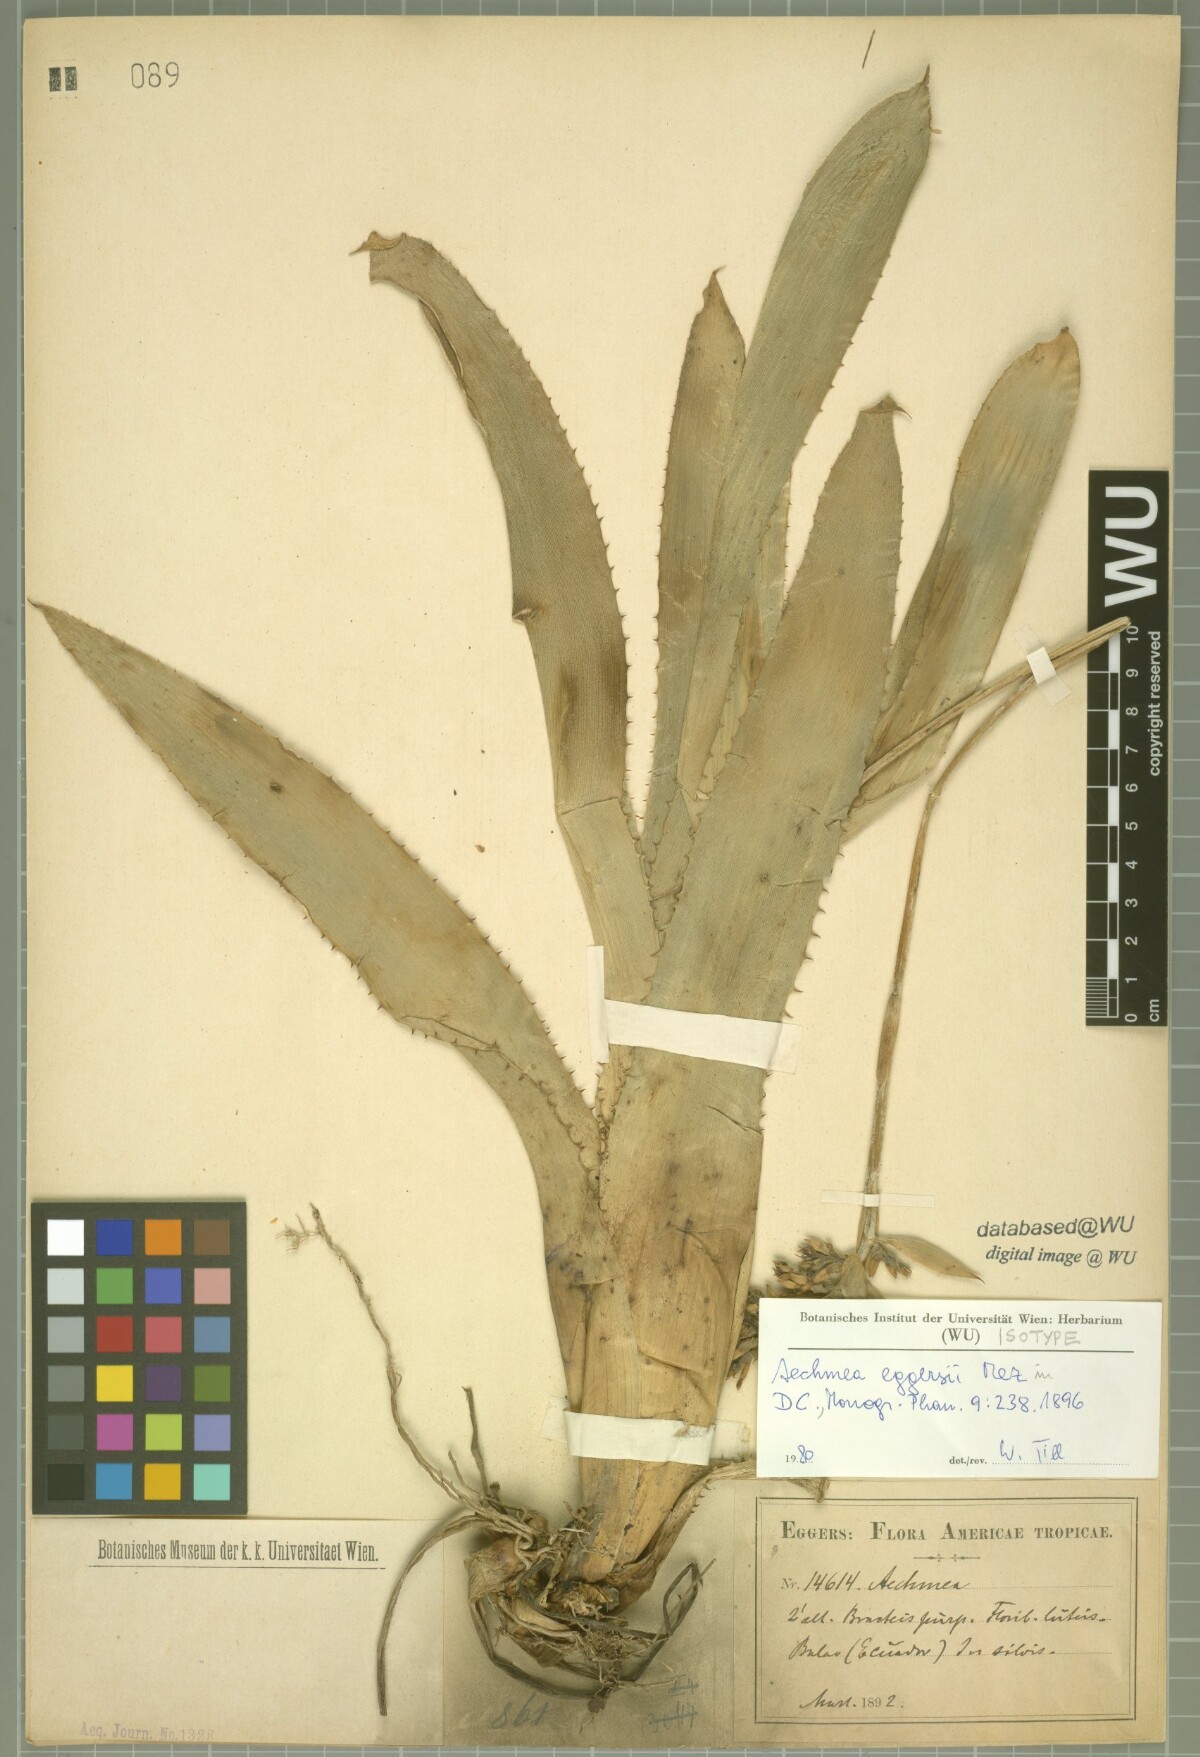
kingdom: Plantae
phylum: Tracheophyta
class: Liliopsida
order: Poales
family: Bromeliaceae
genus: Aechmea
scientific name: Aechmea angustifolia
